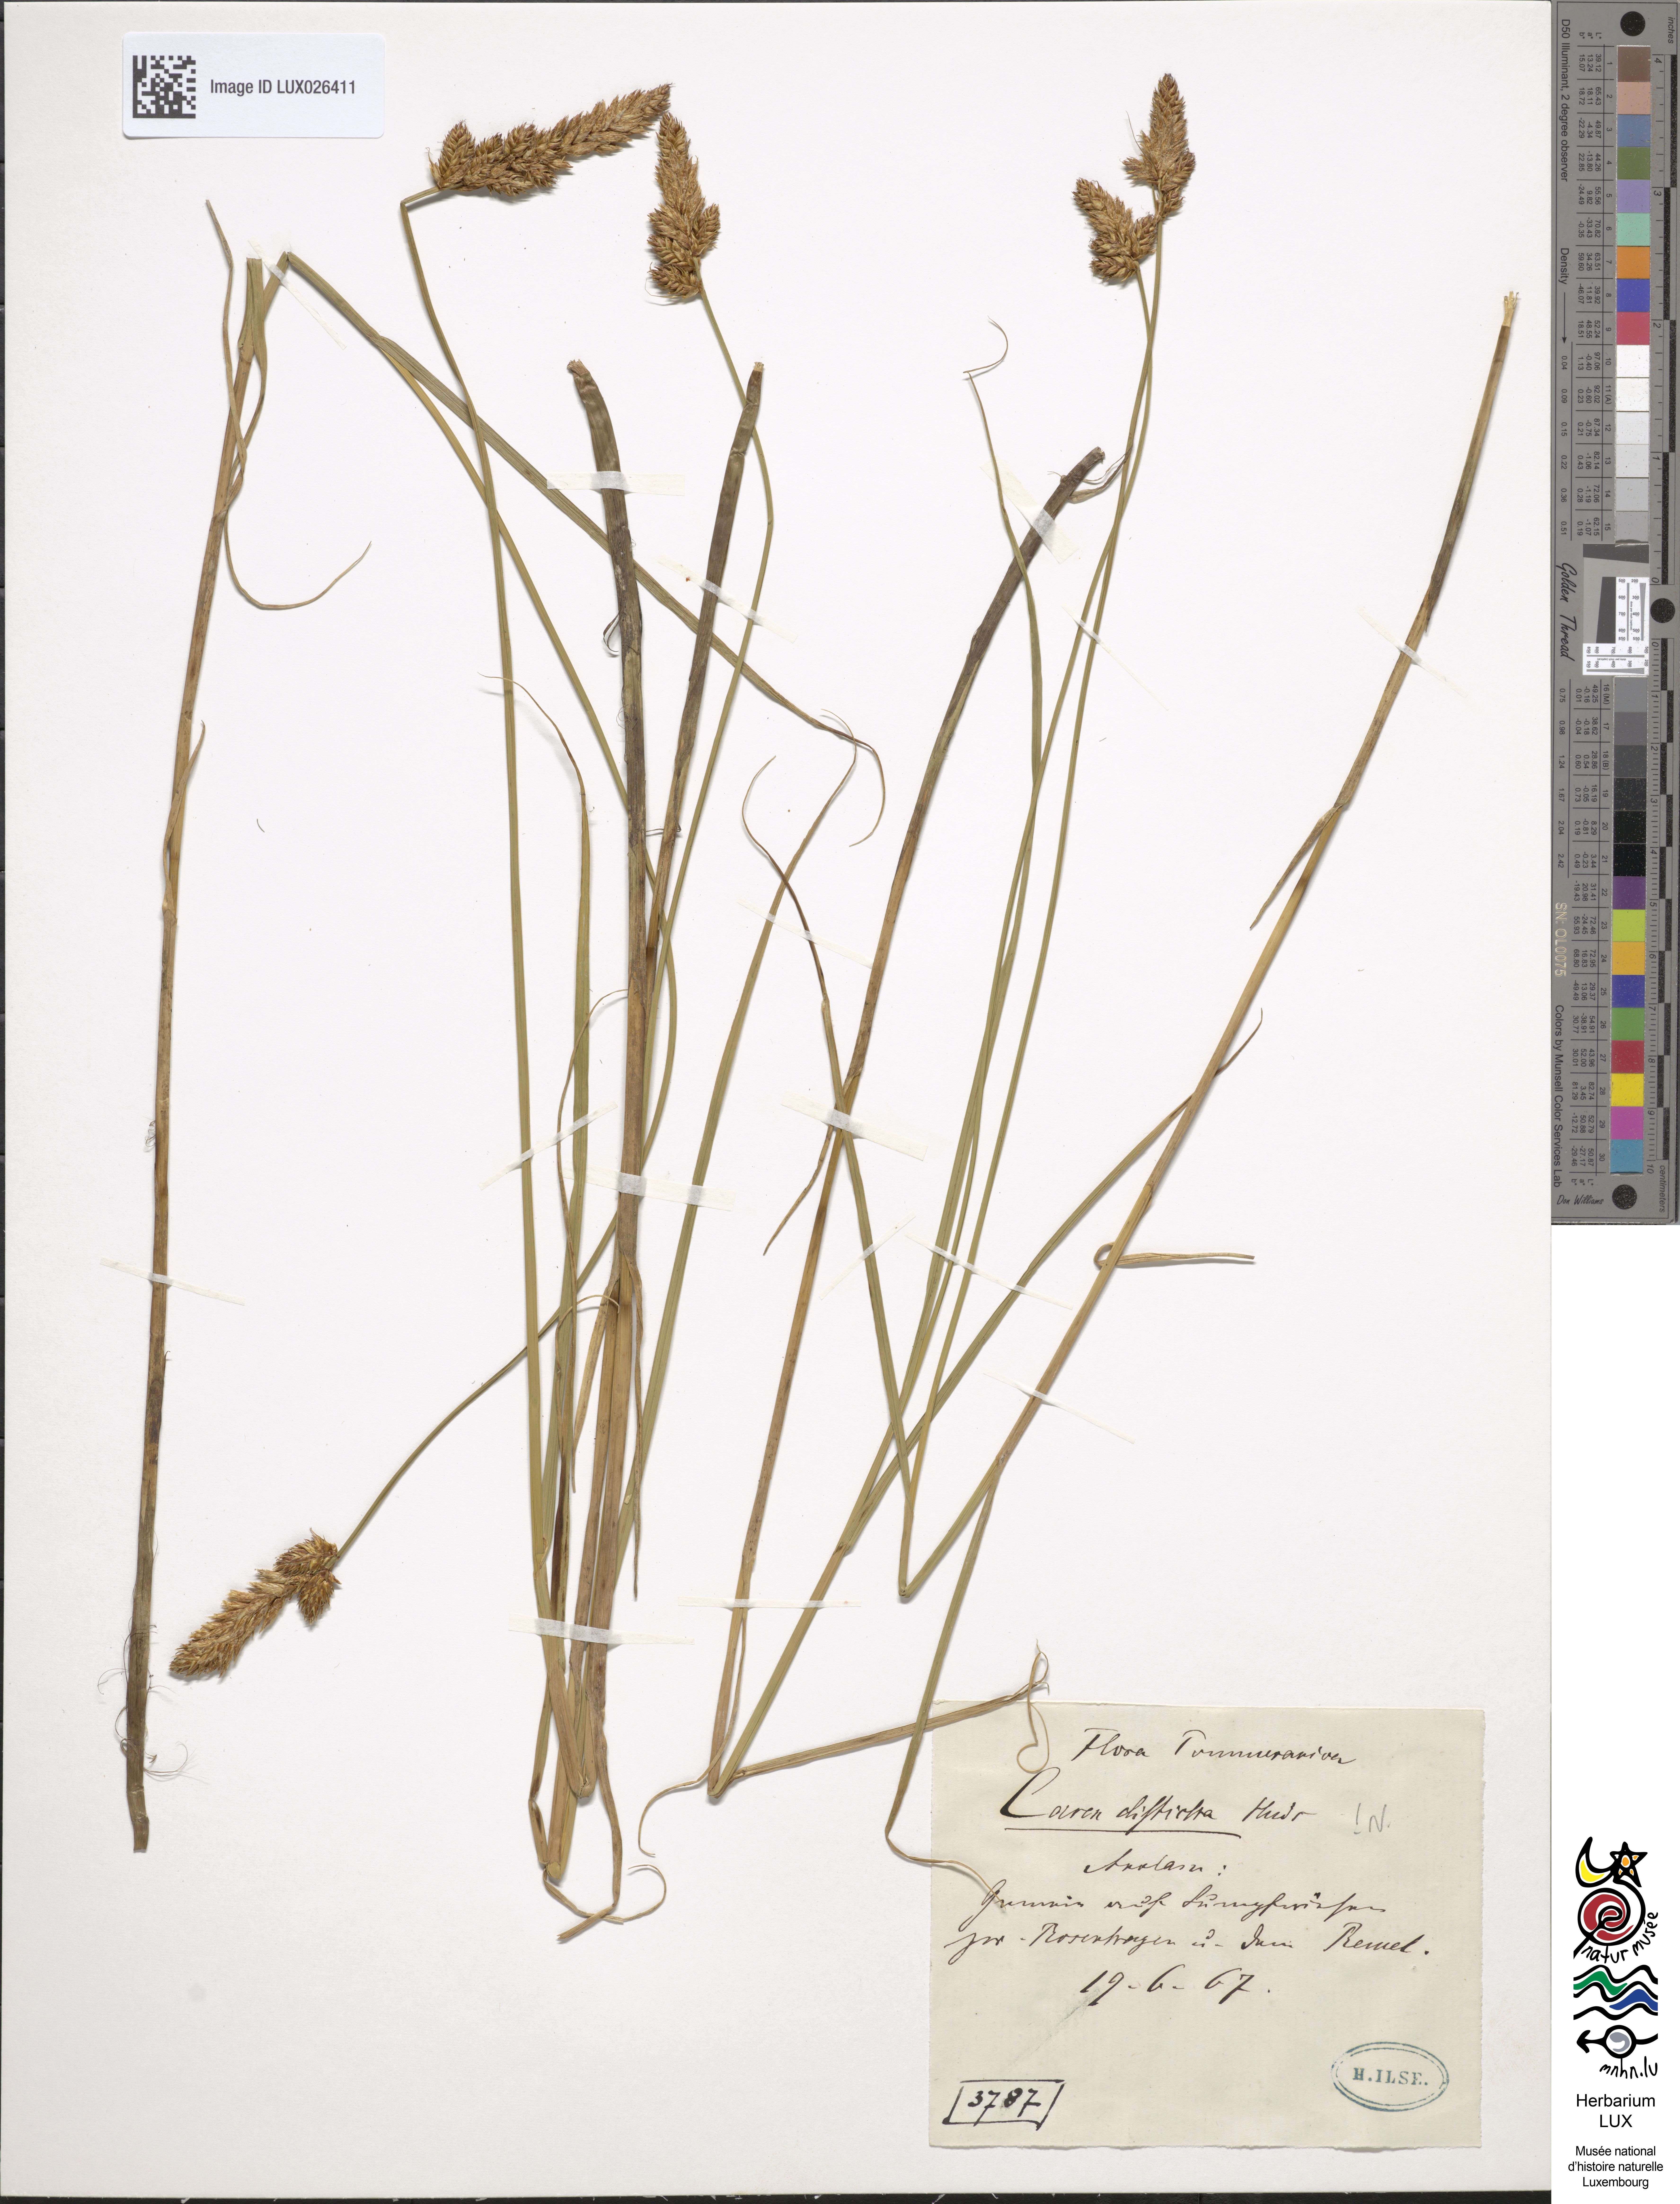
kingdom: Plantae
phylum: Tracheophyta
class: Liliopsida
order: Poales
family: Cyperaceae
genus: Carex
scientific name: Carex disticha
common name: Brown sedge
